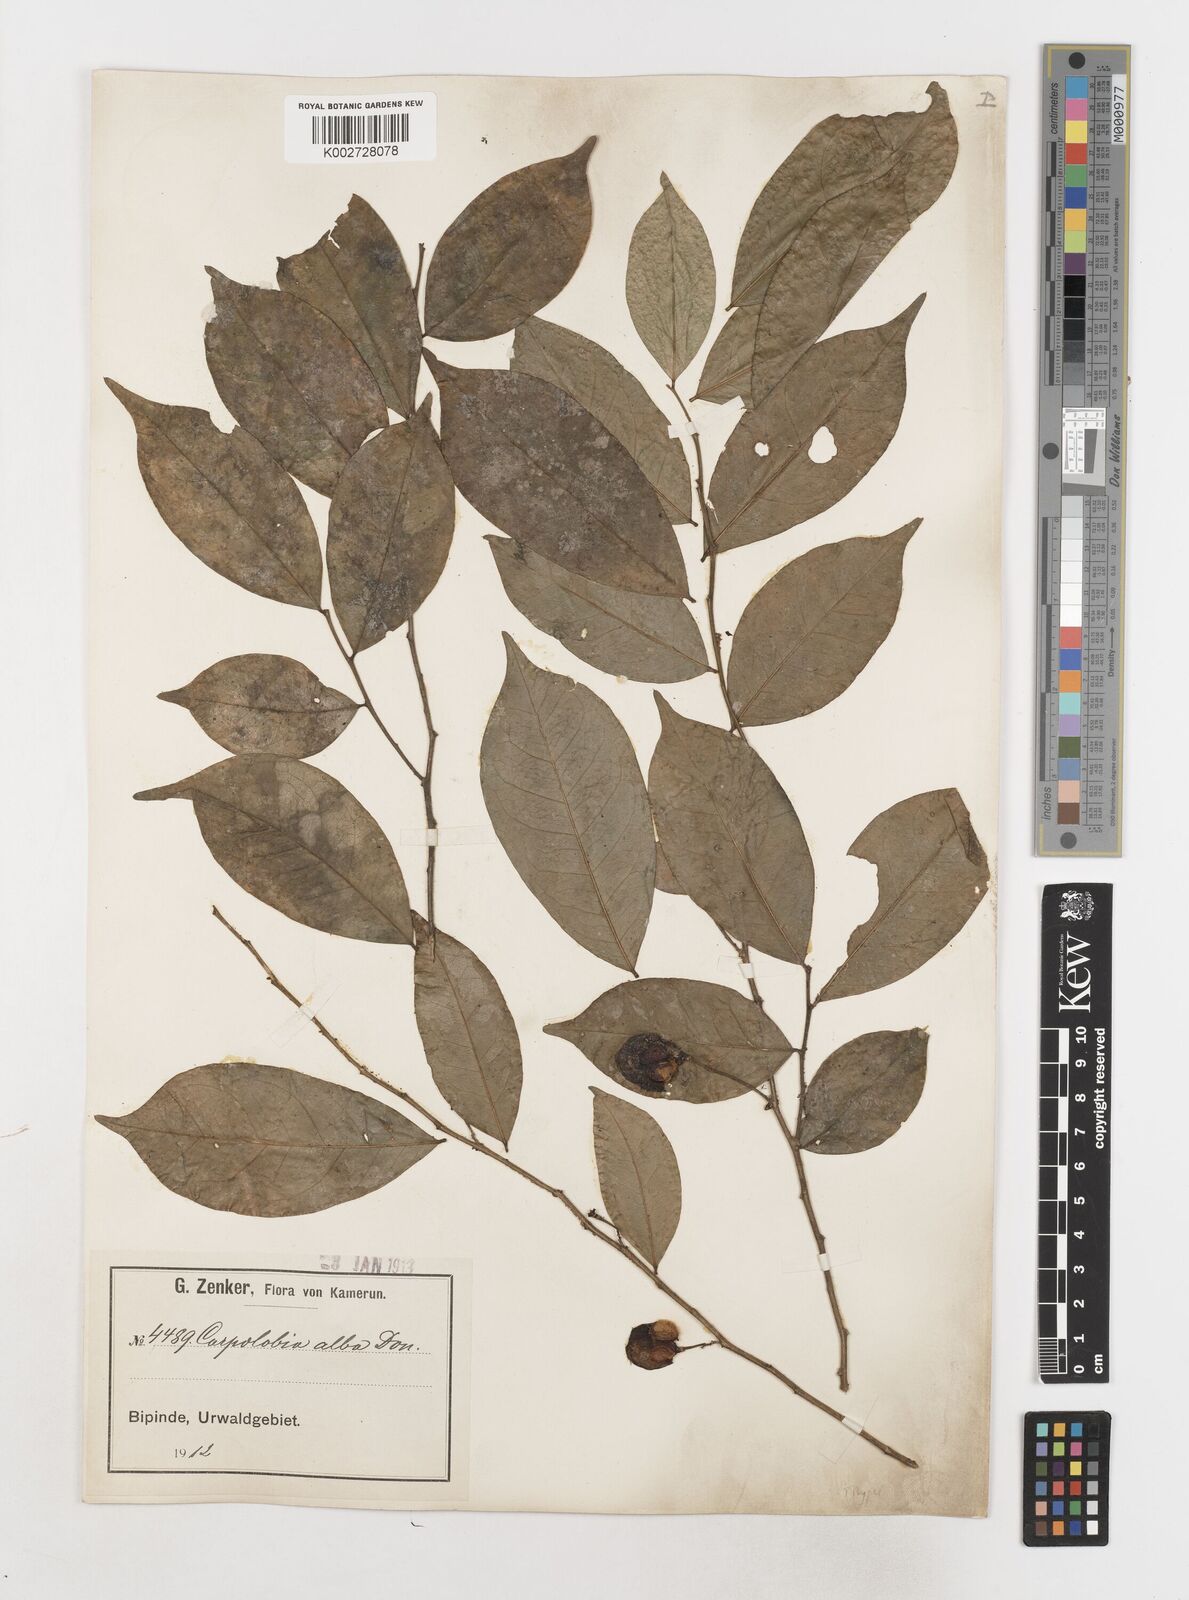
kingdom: Plantae
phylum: Tracheophyta
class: Magnoliopsida
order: Fabales
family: Polygalaceae
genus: Carpolobia
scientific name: Carpolobia alba
